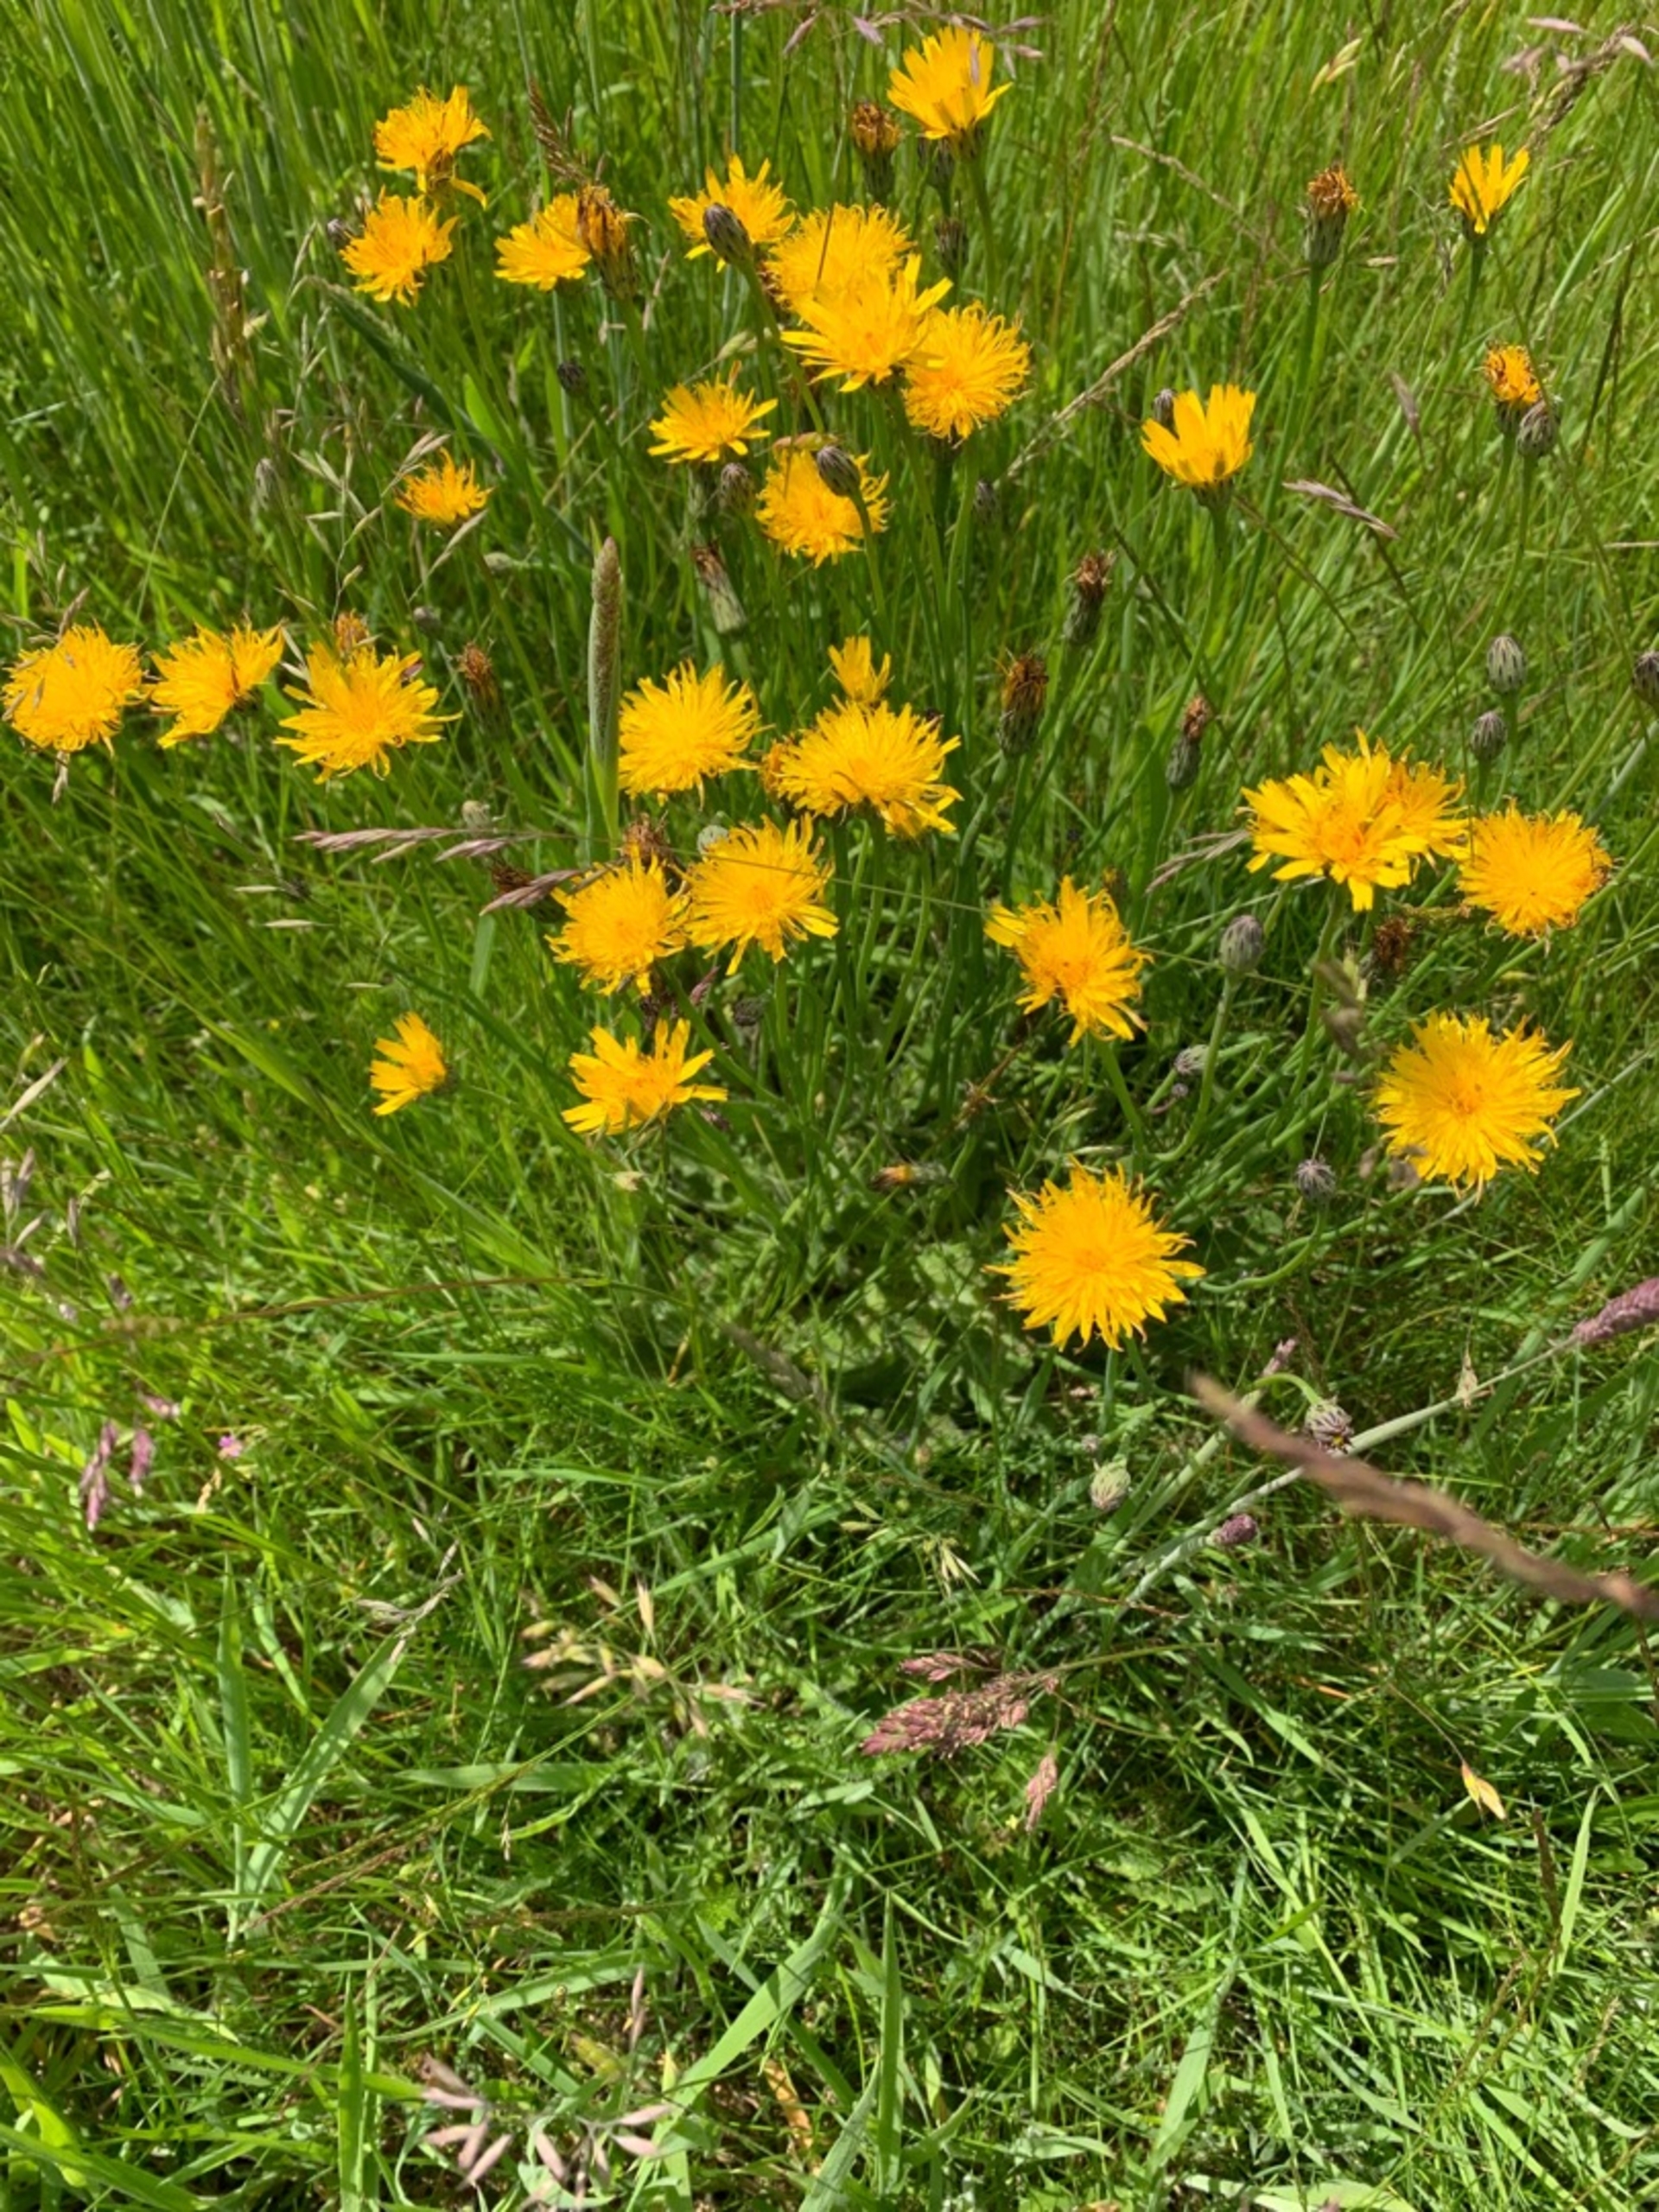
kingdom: Plantae
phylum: Tracheophyta
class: Magnoliopsida
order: Asterales
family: Asteraceae
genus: Hypochaeris
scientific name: Hypochaeris radicata
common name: Almindelig kongepen
